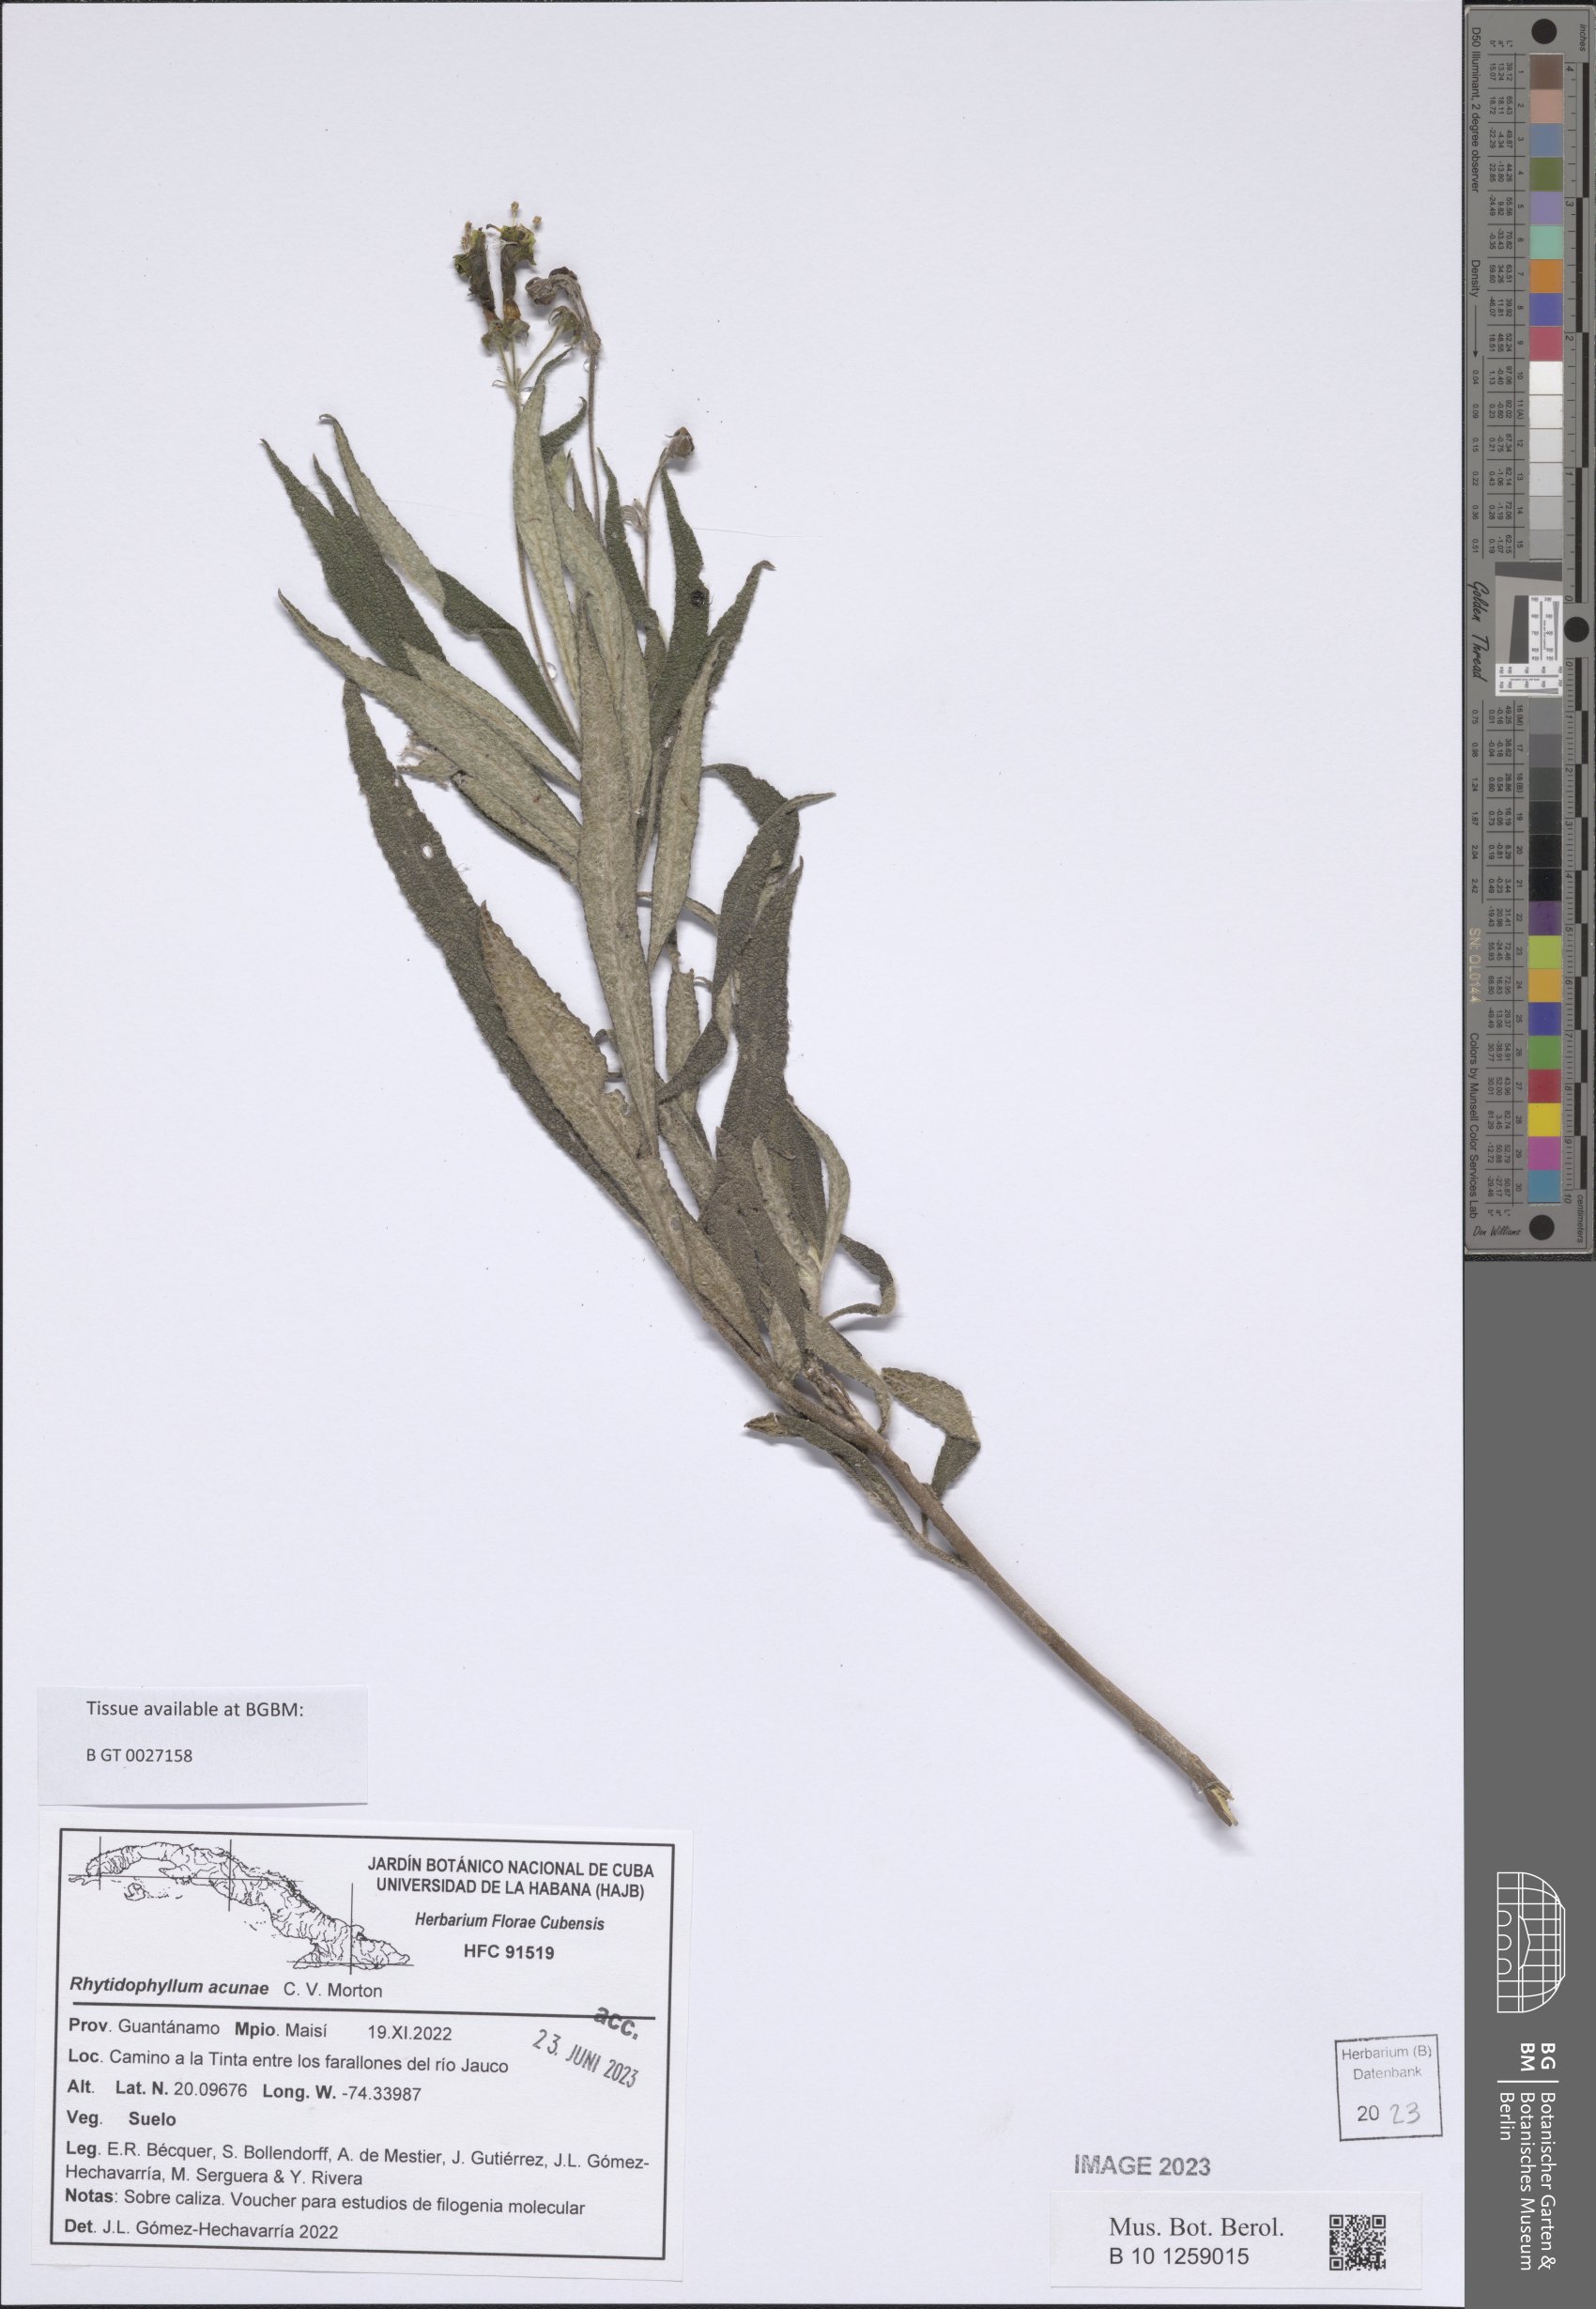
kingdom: Plantae
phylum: Tracheophyta
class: Magnoliopsida
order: Lamiales
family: Gesneriaceae
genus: Rhytidophyllum
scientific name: Rhytidophyllum acunae
